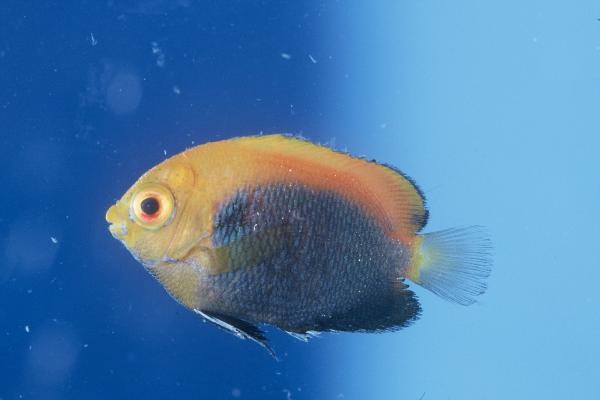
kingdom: Animalia
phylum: Chordata
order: Perciformes
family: Pomacanthidae
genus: Centropyge
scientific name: Centropyge acanthops
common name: African pygmy angelfish
